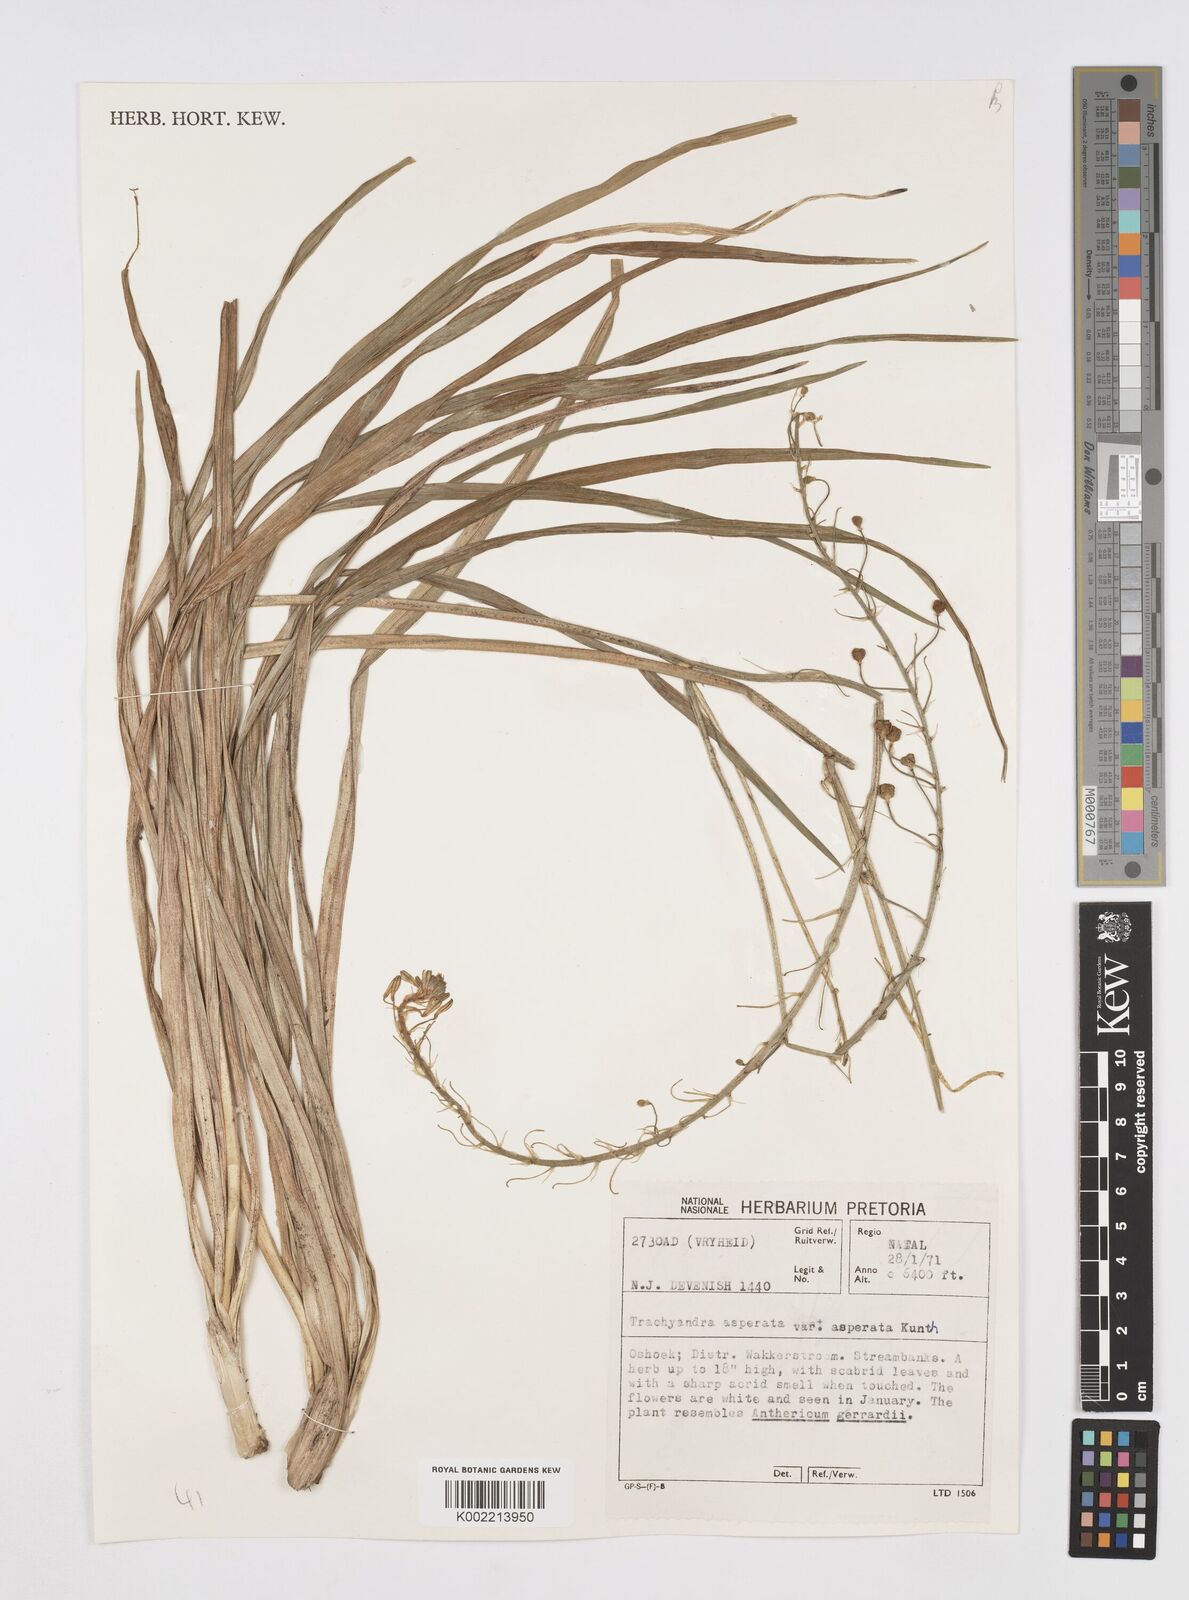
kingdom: Plantae
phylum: Tracheophyta
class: Liliopsida
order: Asparagales
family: Asphodelaceae
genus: Trachyandra
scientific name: Trachyandra asperata
